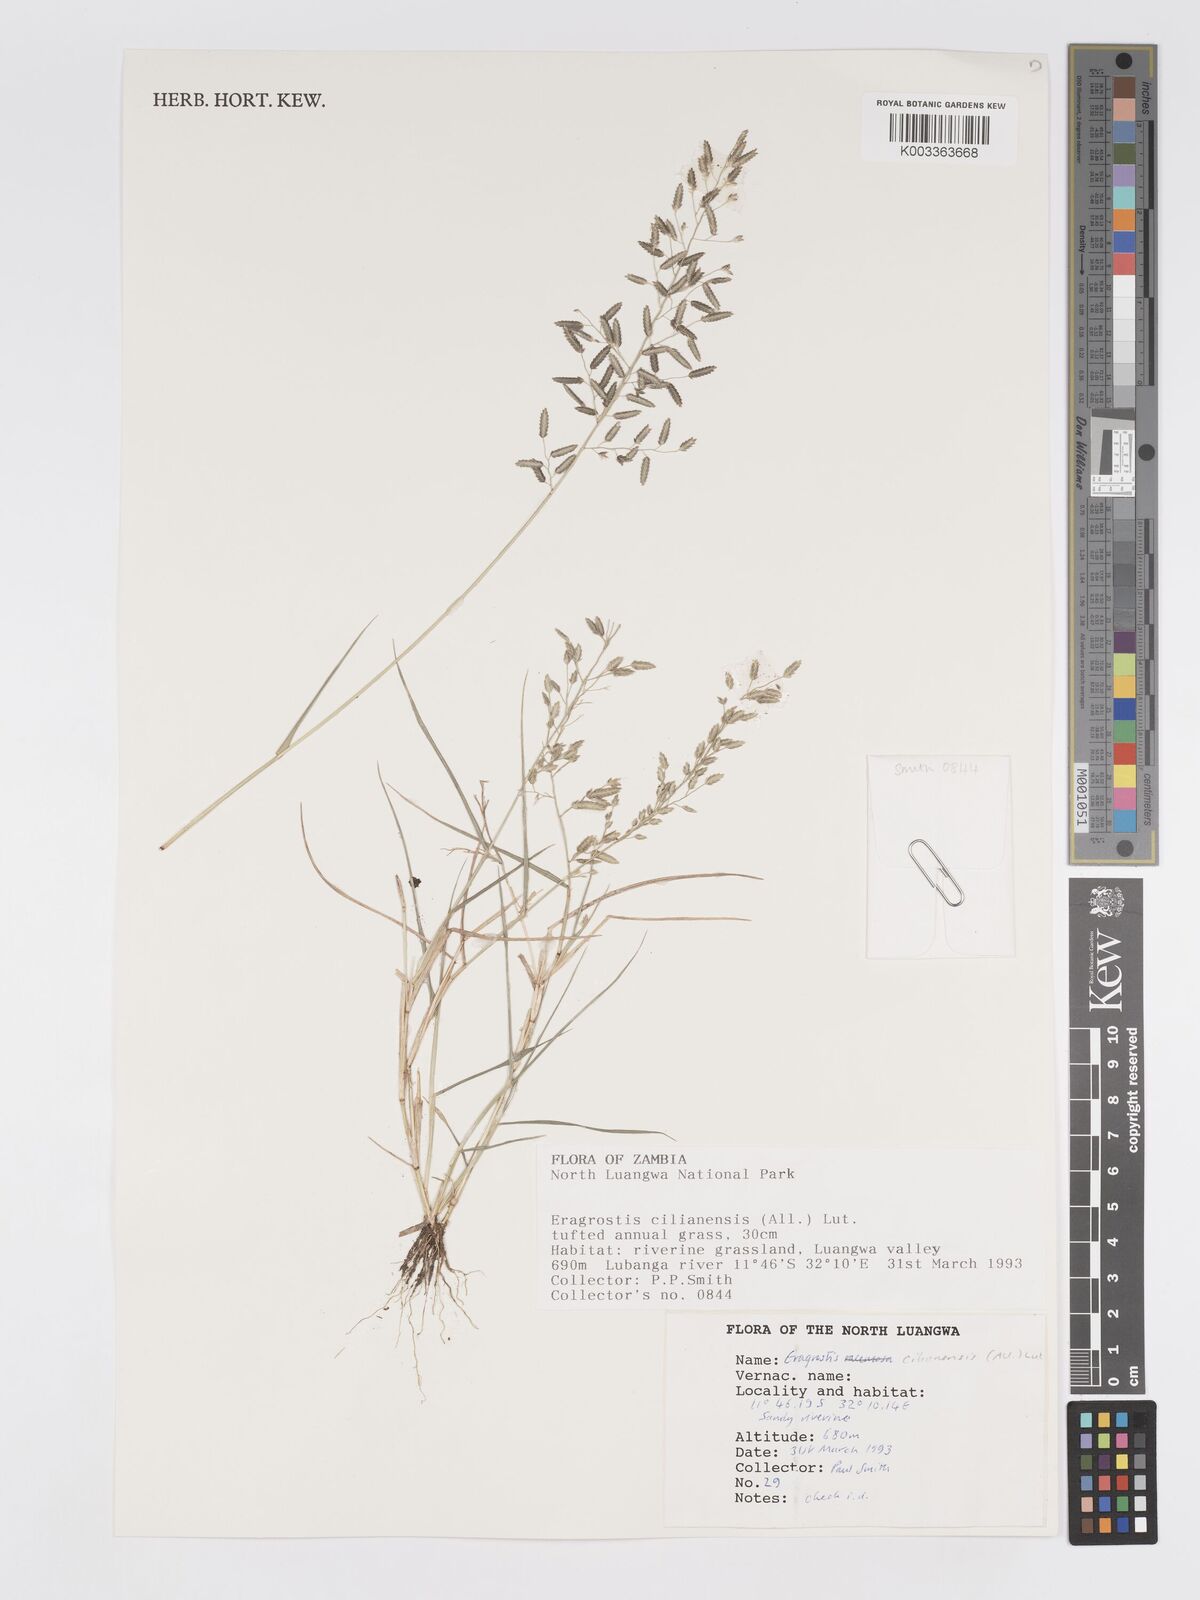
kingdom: Plantae
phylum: Tracheophyta
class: Liliopsida
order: Poales
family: Poaceae
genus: Eragrostis
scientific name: Eragrostis cilianensis
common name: Stinkgrass
